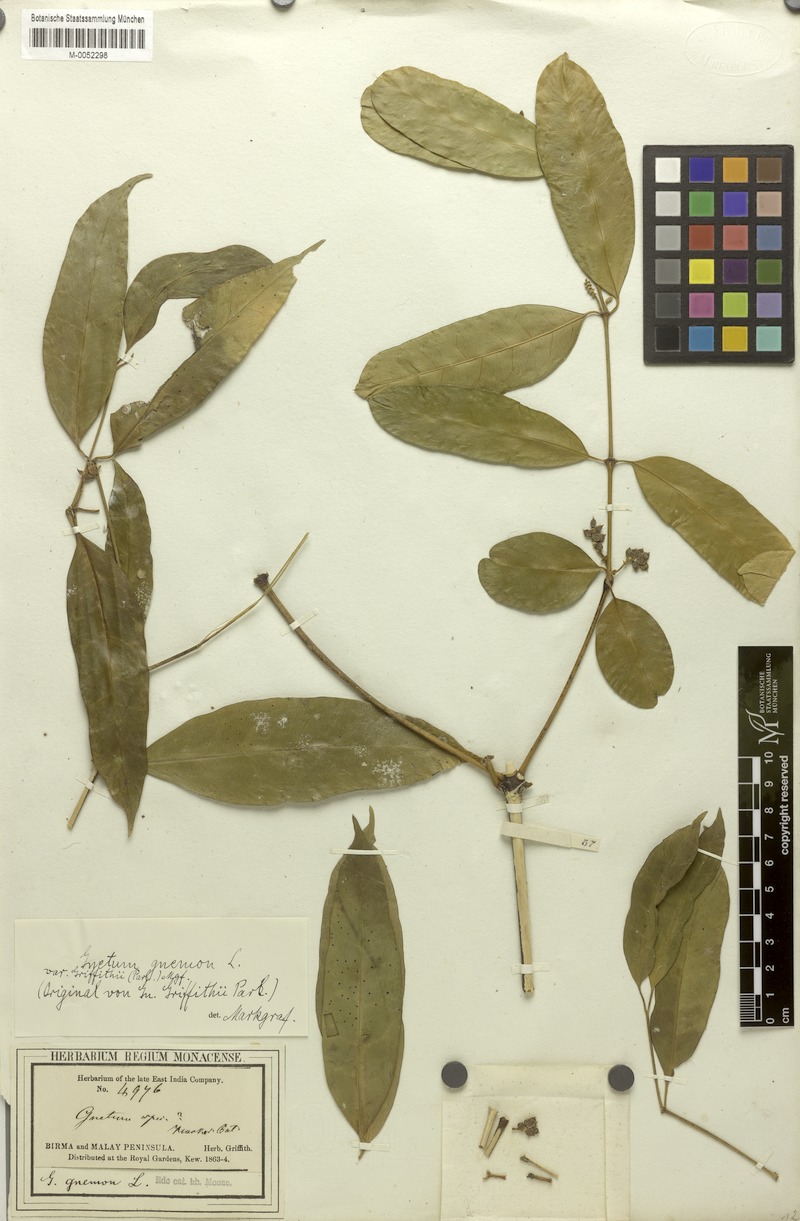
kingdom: Plantae
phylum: Tracheophyta
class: Gnetopsida
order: Gnetales
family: Gnetaceae
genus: Gnetum
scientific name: Gnetum gnemon
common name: Spanish joint-fir
